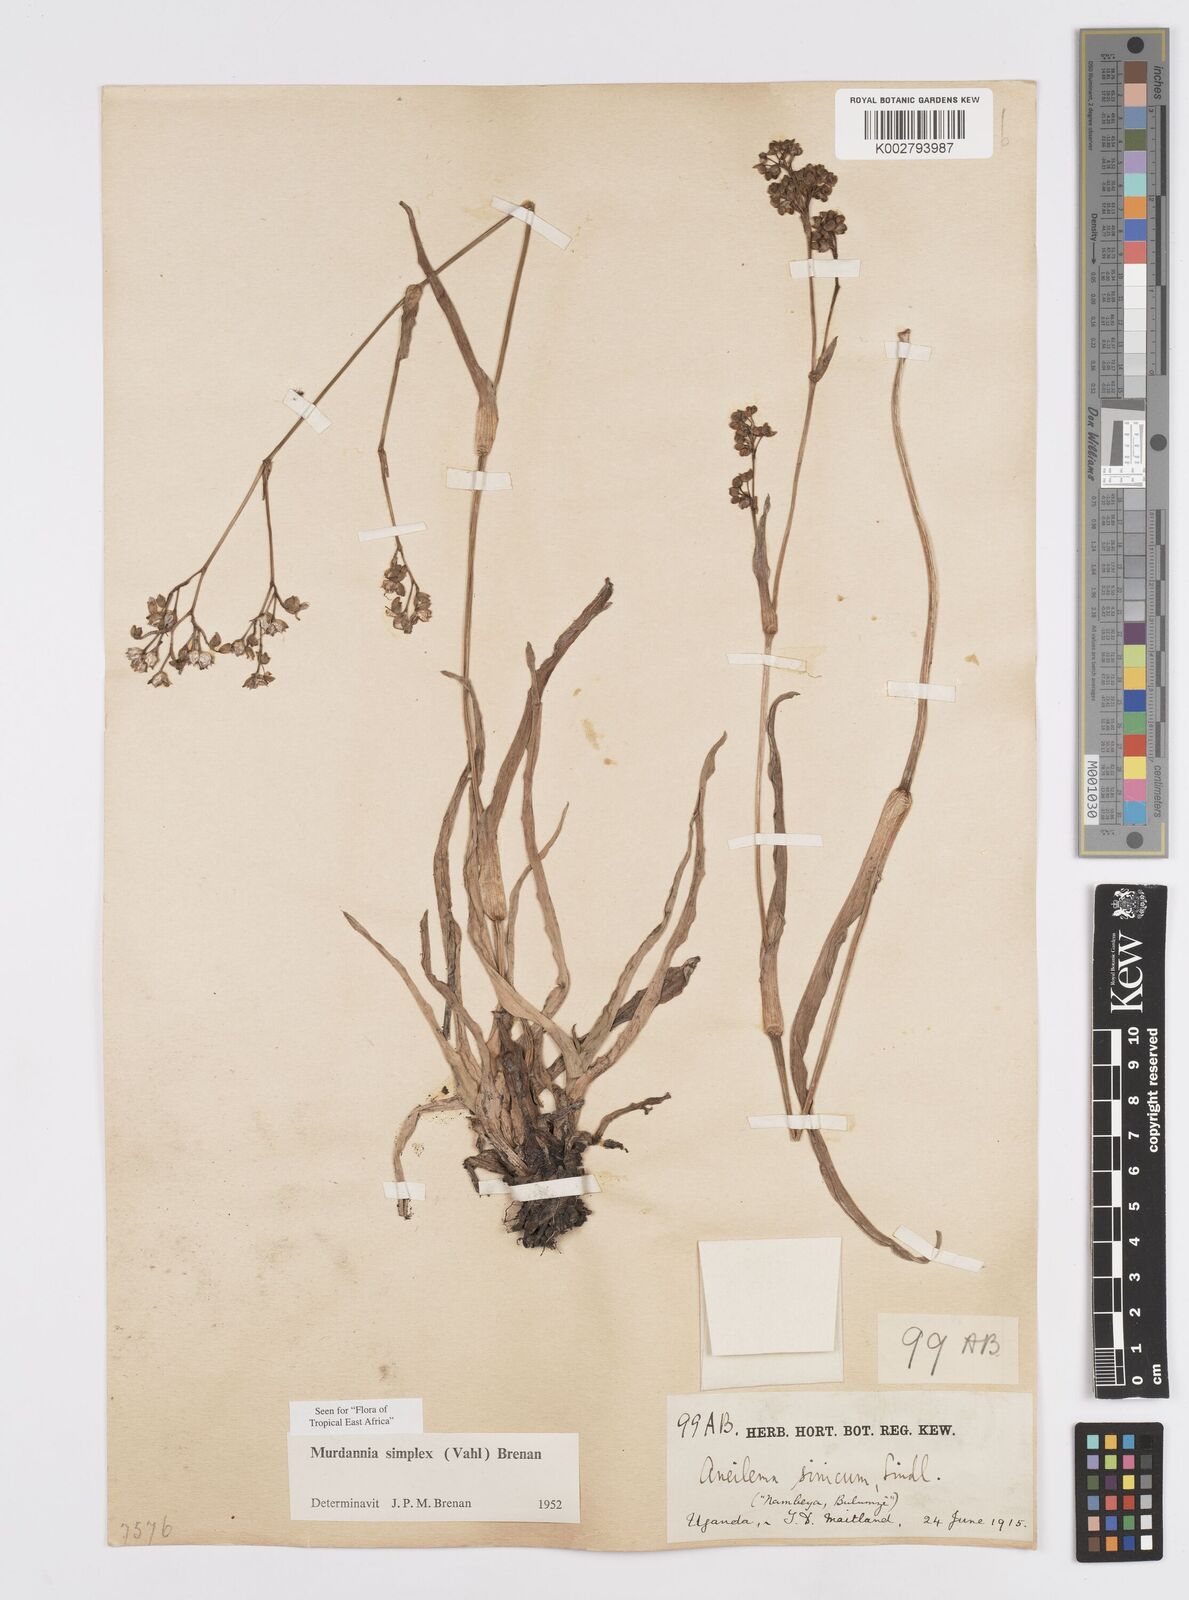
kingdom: Plantae
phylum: Tracheophyta
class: Liliopsida
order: Commelinales
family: Commelinaceae
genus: Murdannia
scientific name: Murdannia simplex
